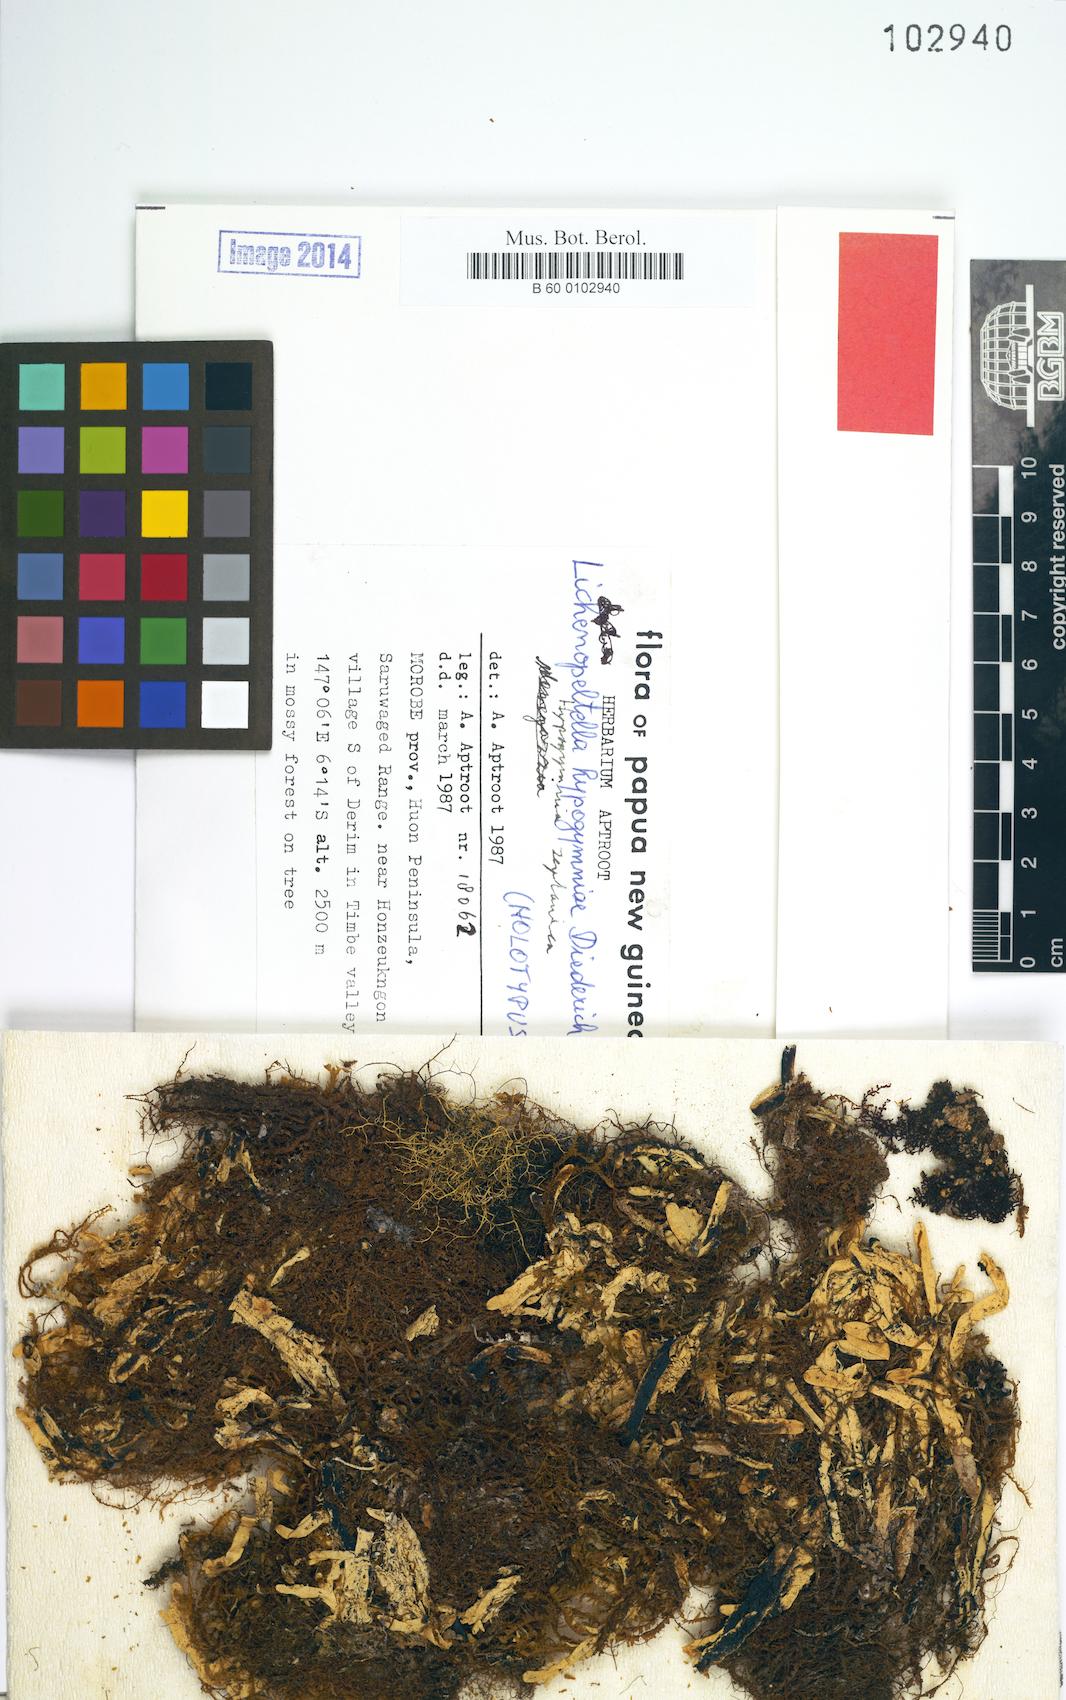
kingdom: Fungi
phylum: Ascomycota
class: Dothideomycetes
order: Microthyriales
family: Microthyriaceae
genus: Lichenopeltella
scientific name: Lichenopeltella hypogymniae
